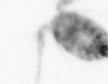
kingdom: Animalia
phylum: Arthropoda
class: Copepoda
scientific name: Copepoda
